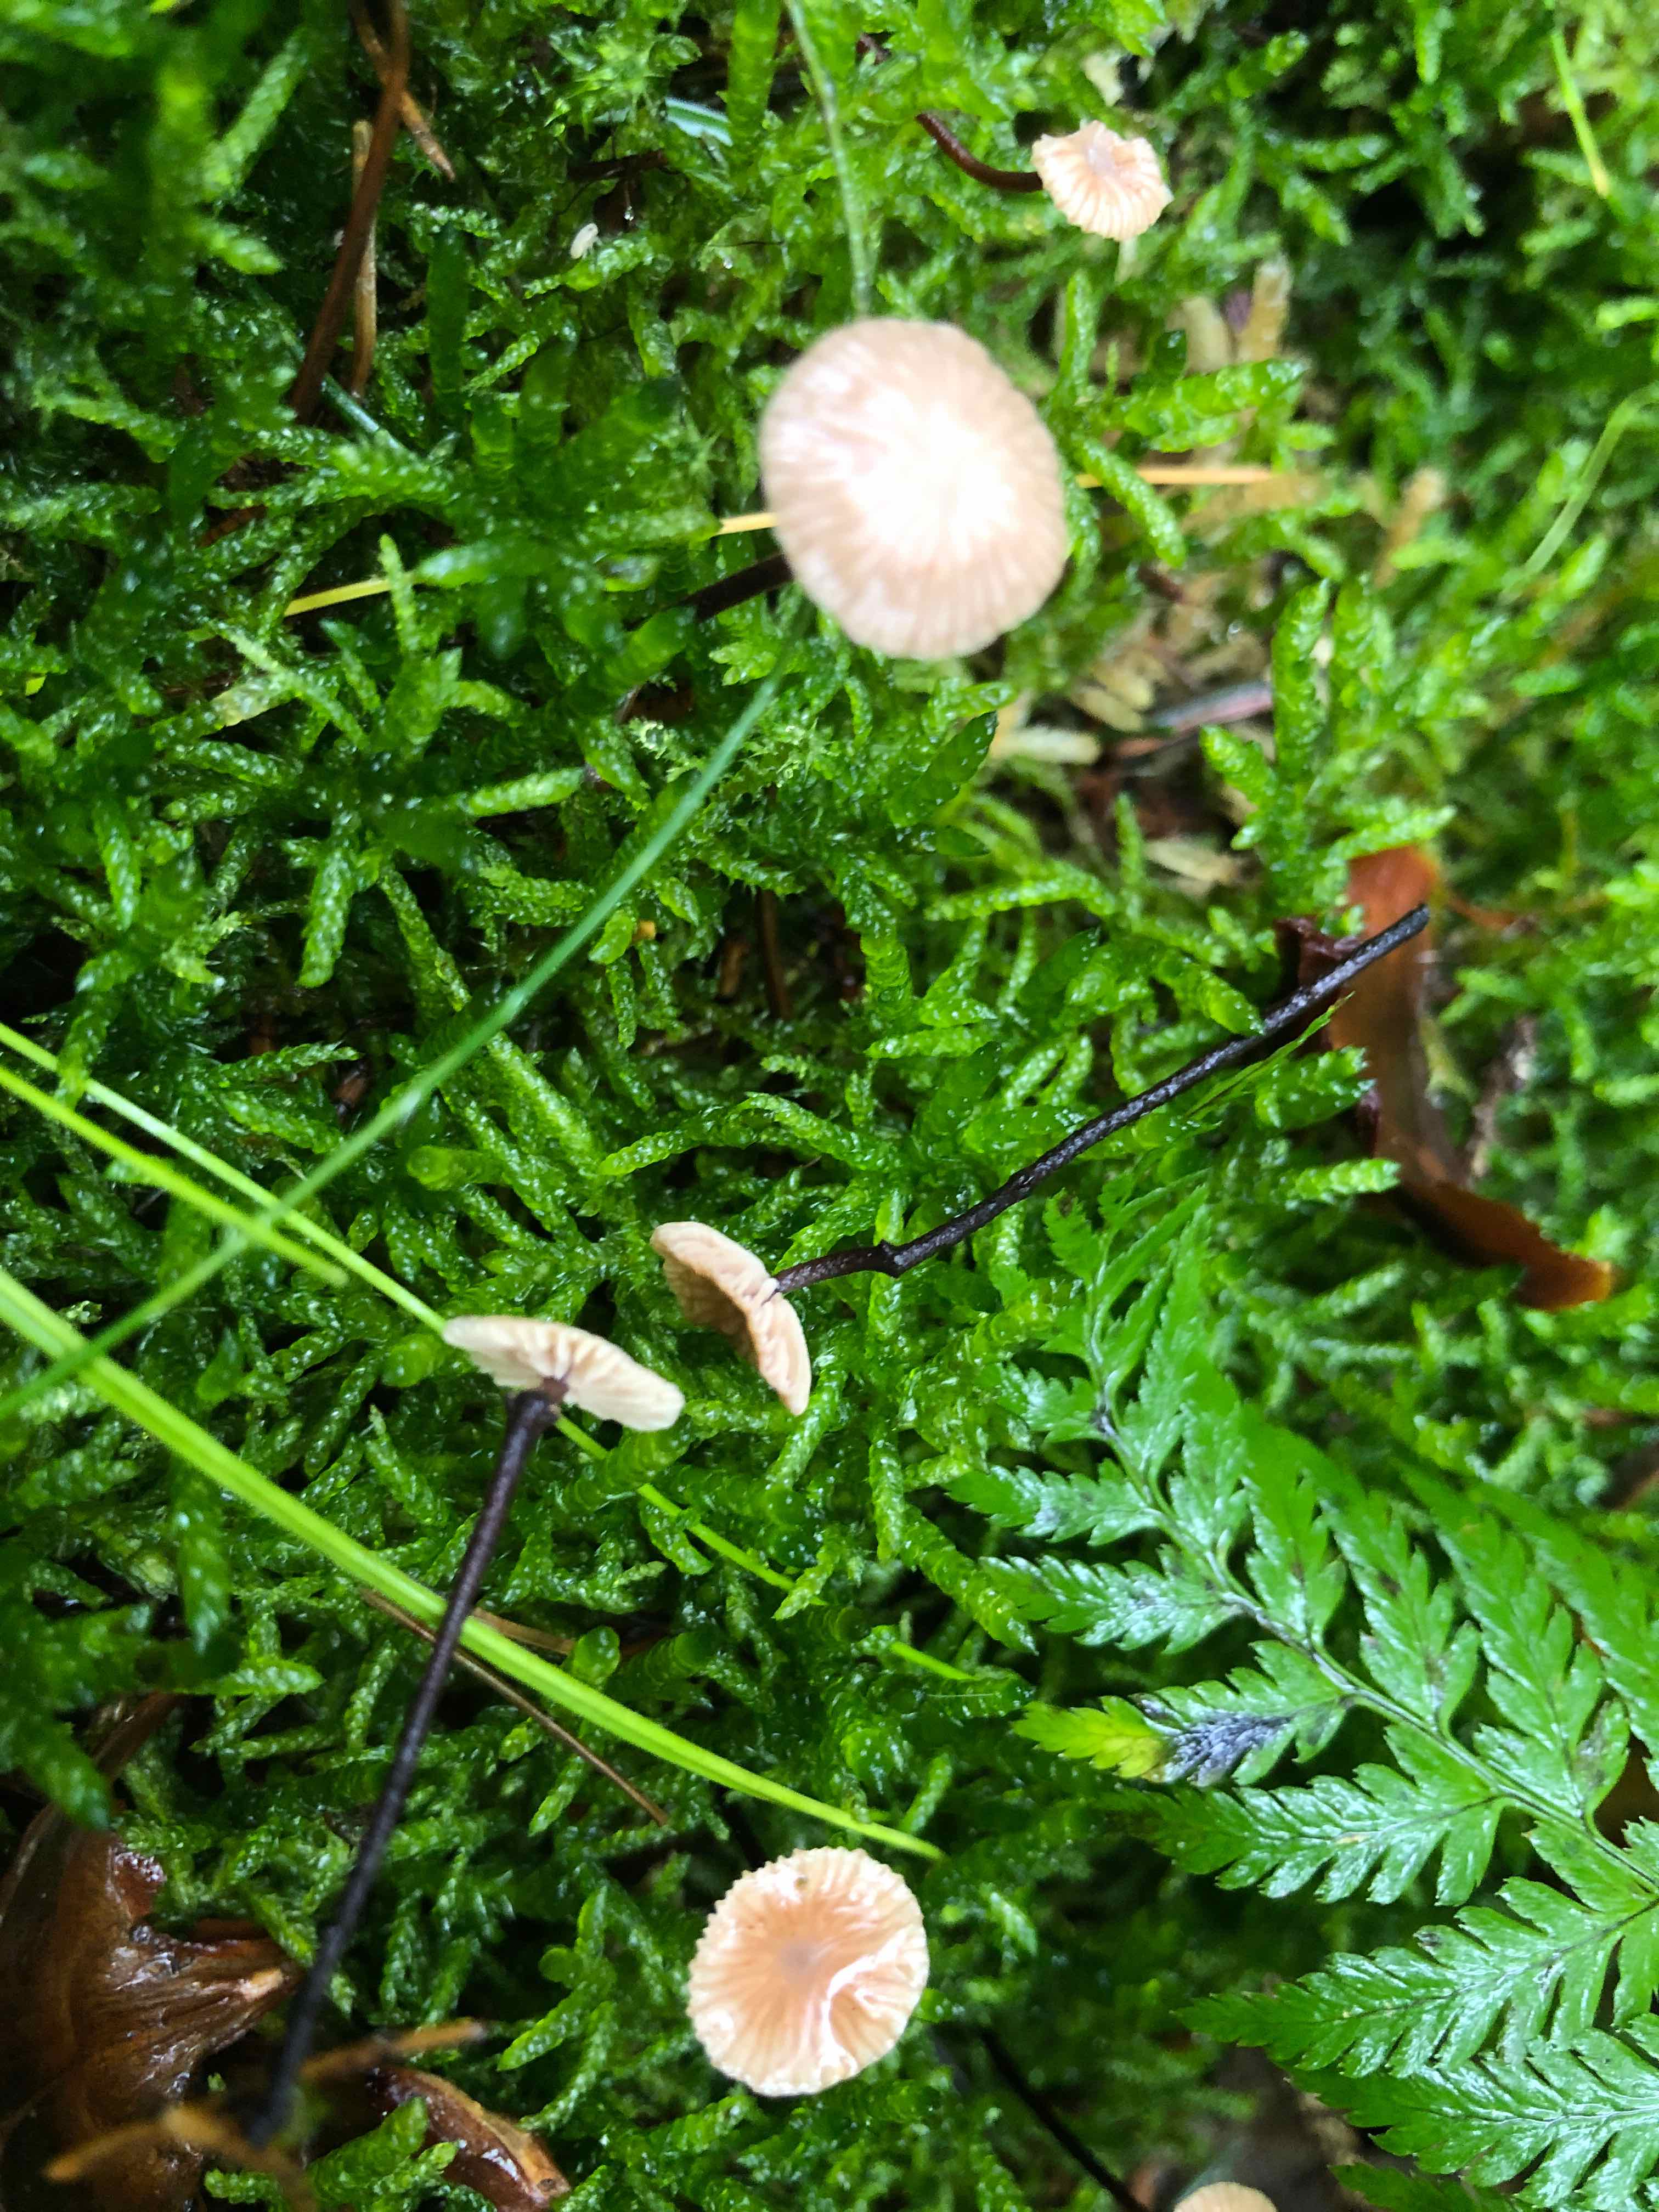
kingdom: Fungi
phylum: Basidiomycota
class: Agaricomycetes
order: Agaricales
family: Omphalotaceae
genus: Paragymnopus
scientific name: Paragymnopus perforans
